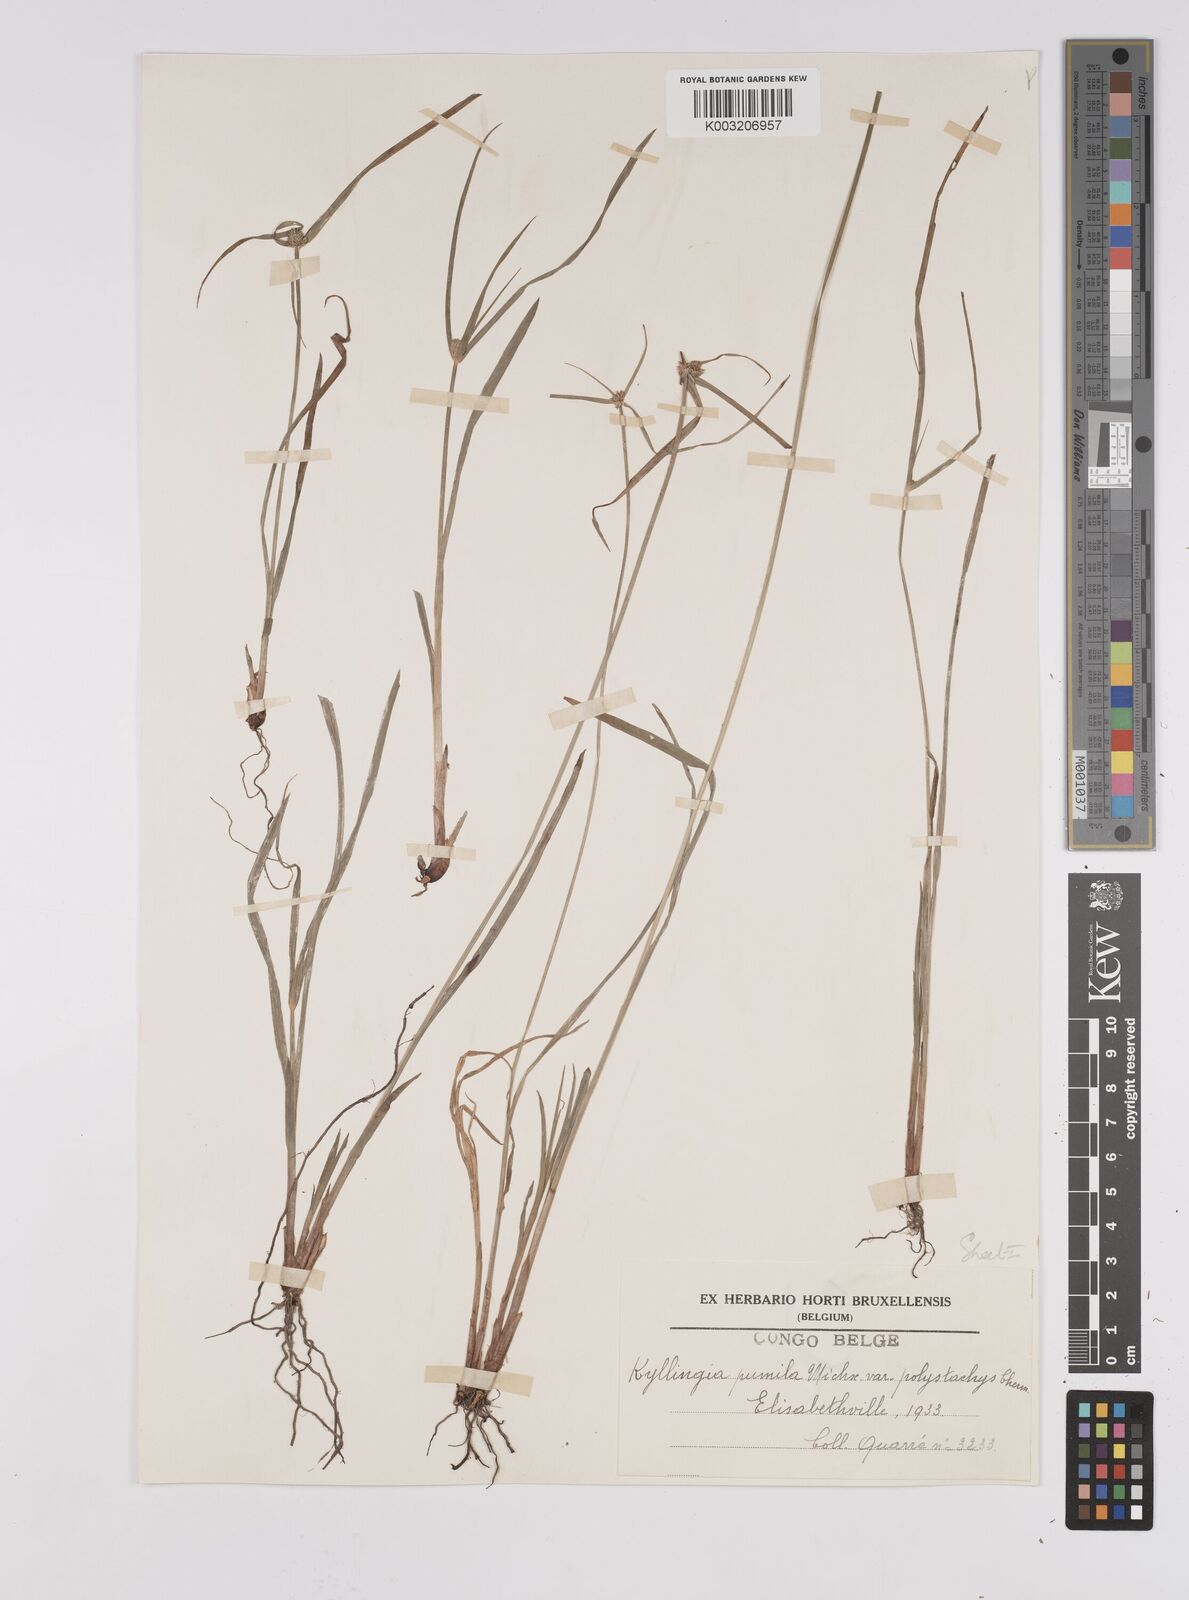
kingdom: Plantae
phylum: Tracheophyta
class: Liliopsida
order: Poales
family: Cyperaceae
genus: Cyperus
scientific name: Cyperus
